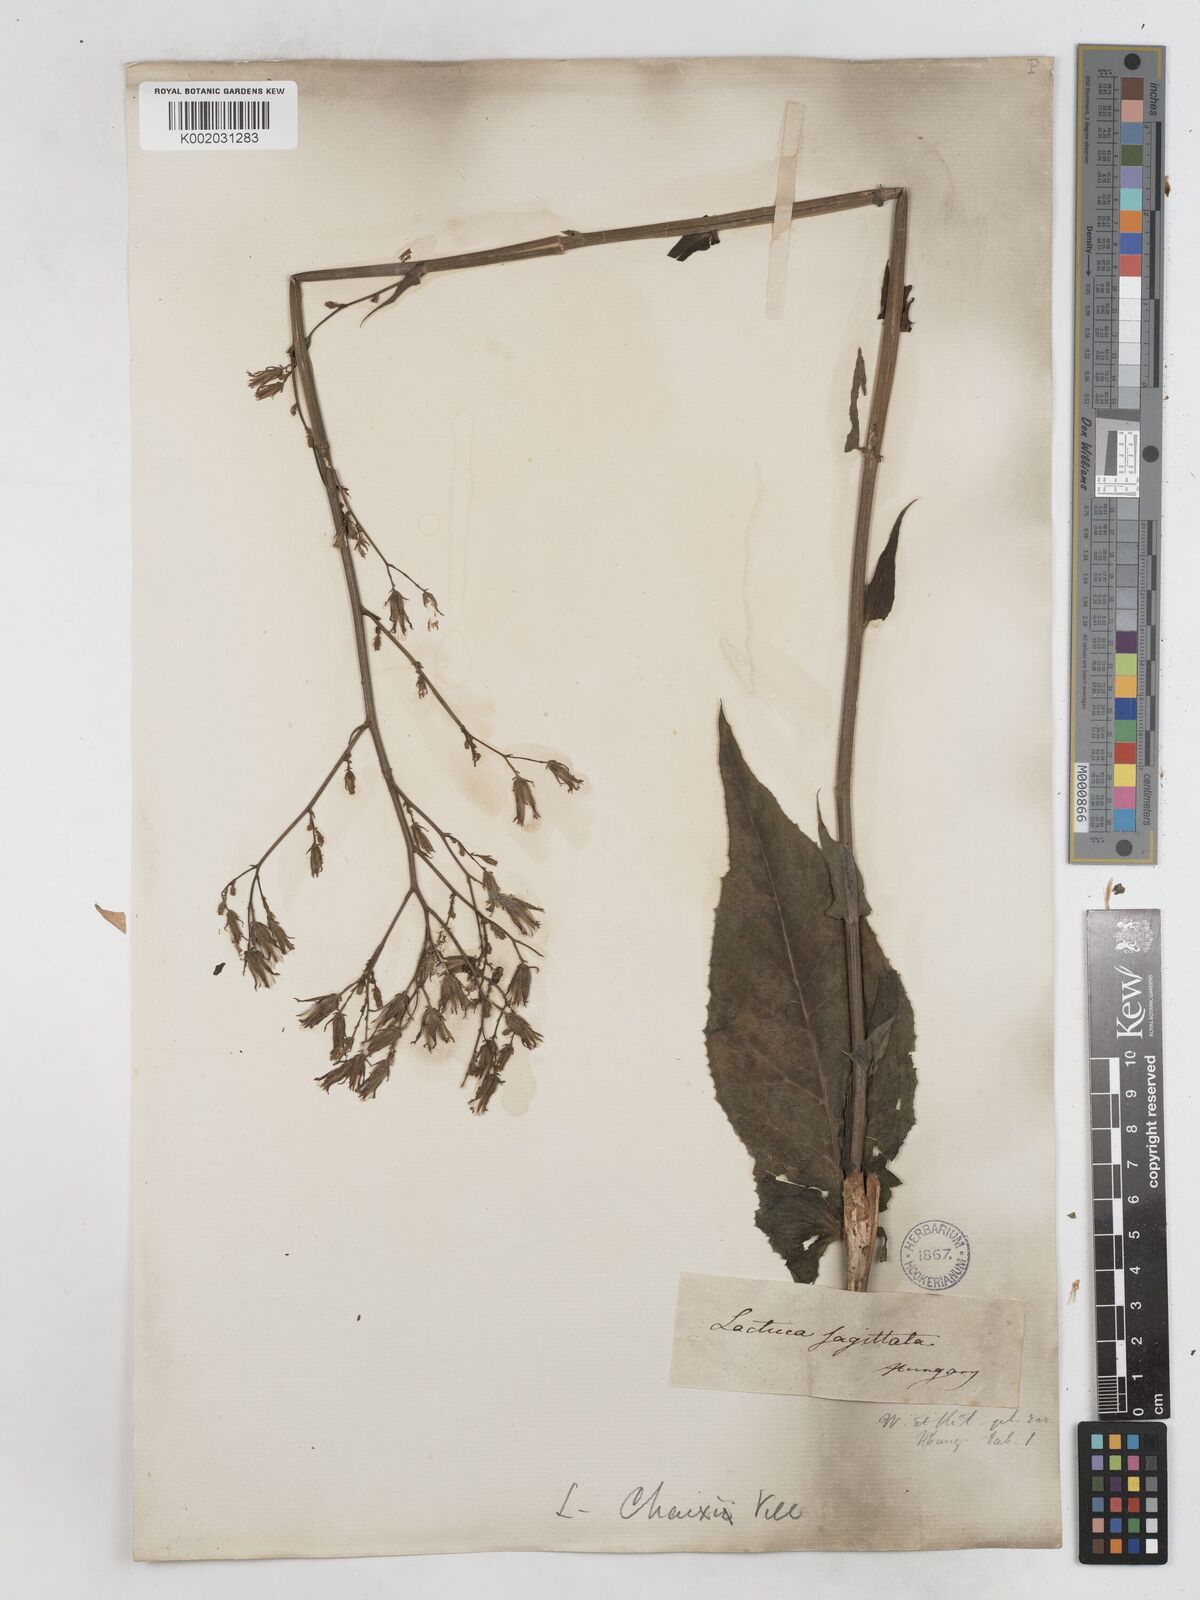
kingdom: Plantae
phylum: Tracheophyta
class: Magnoliopsida
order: Asterales
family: Asteraceae
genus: Lactuca
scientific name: Lactuca quercina
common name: Wild lettuce
